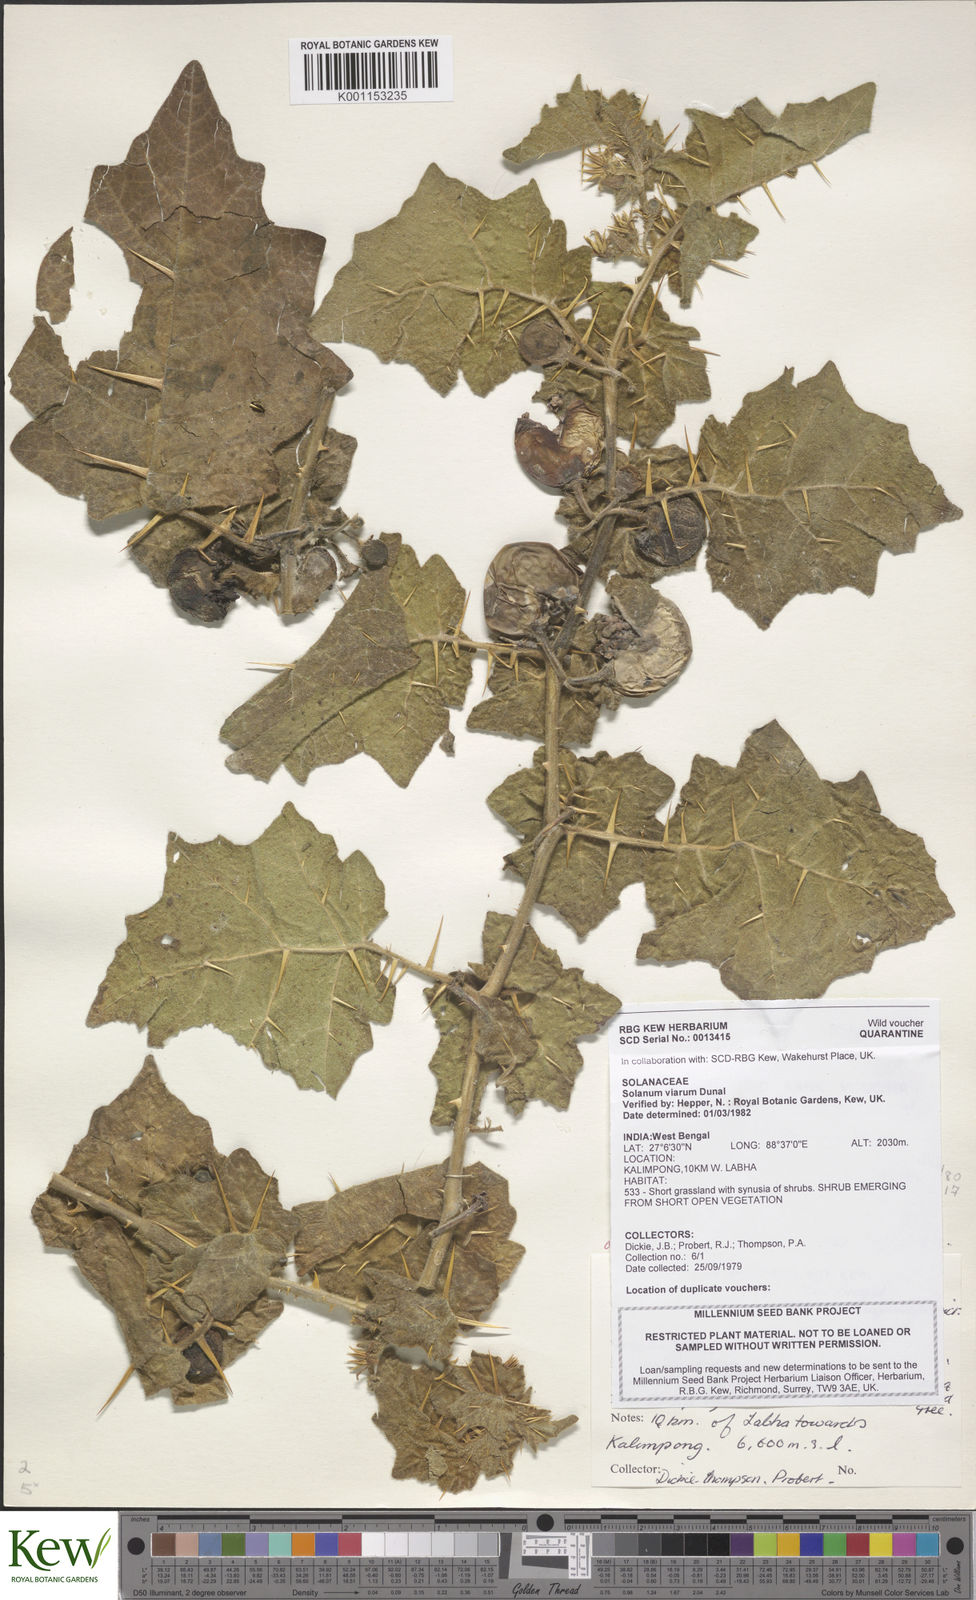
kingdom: Plantae
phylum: Tracheophyta
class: Magnoliopsida
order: Solanales
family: Solanaceae
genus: Solanum
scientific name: Solanum viarum
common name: Tropical soda apple
